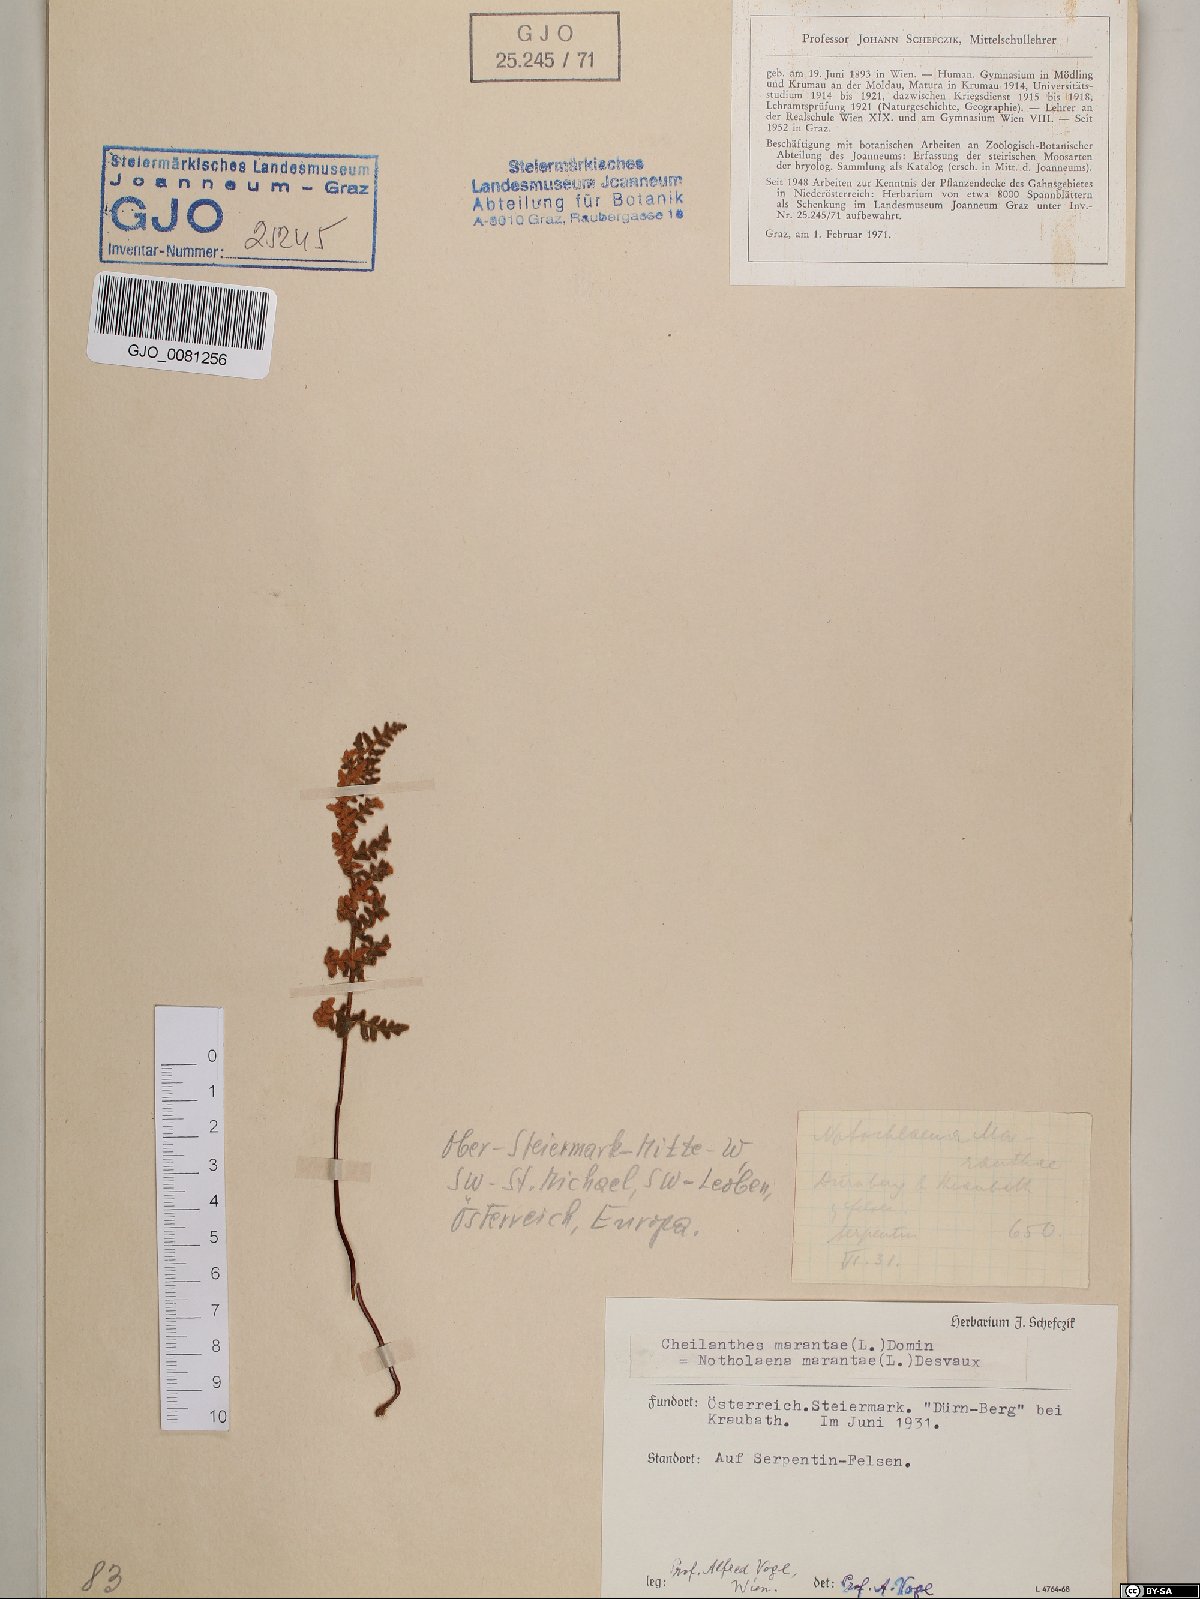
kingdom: Plantae
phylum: Tracheophyta
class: Polypodiopsida
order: Polypodiales
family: Pteridaceae
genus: Paragymnopteris
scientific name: Paragymnopteris marantae
